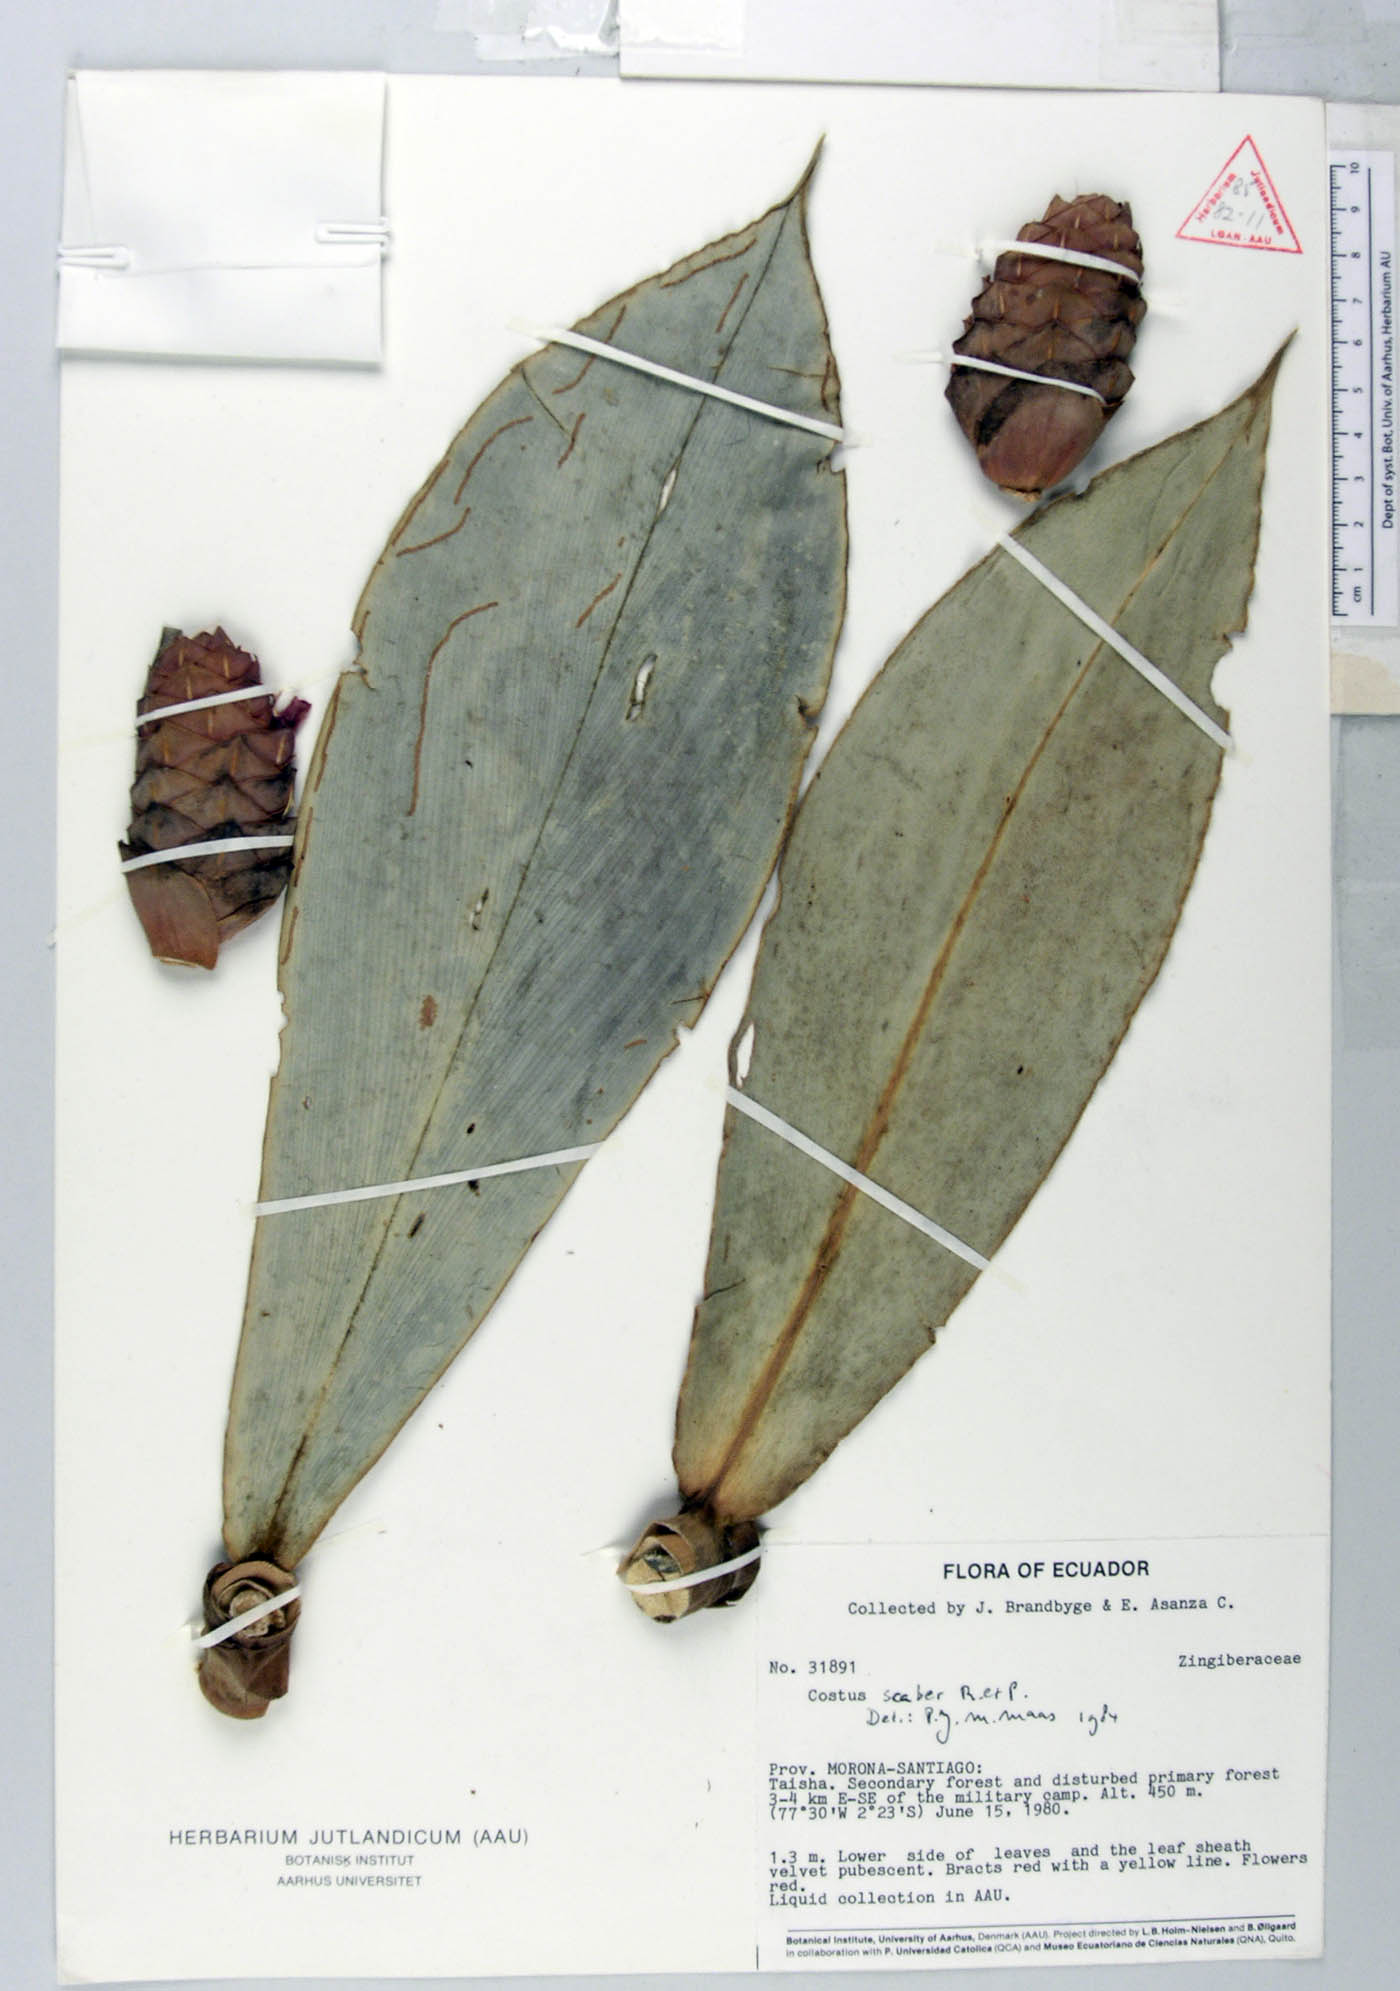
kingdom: Plantae
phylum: Tracheophyta
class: Liliopsida
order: Zingiberales
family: Costaceae
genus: Costus
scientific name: Costus scaber
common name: Spiral head ginger
